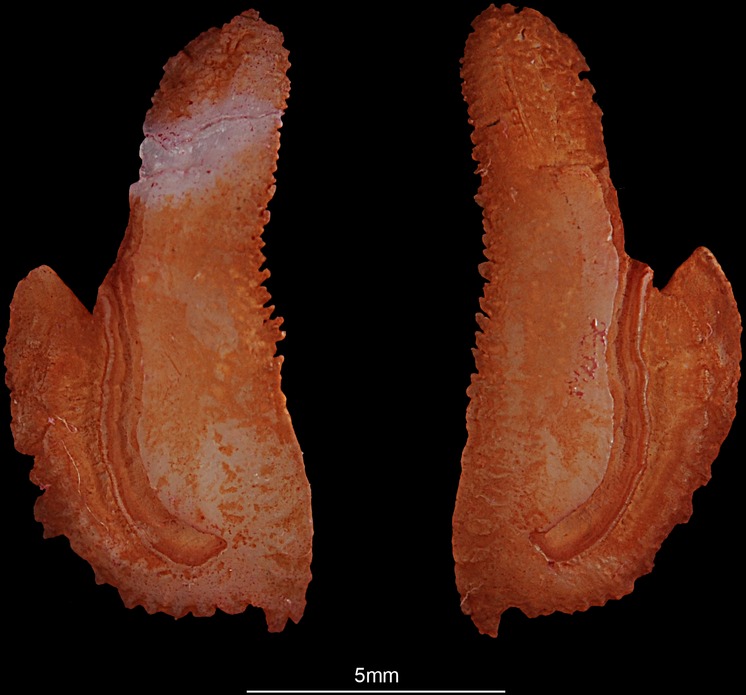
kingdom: Animalia
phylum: Chordata
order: Perciformes
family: Osphronemidae
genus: Osphronemus
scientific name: Osphronemus exodon
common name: Elephant ear gourami
